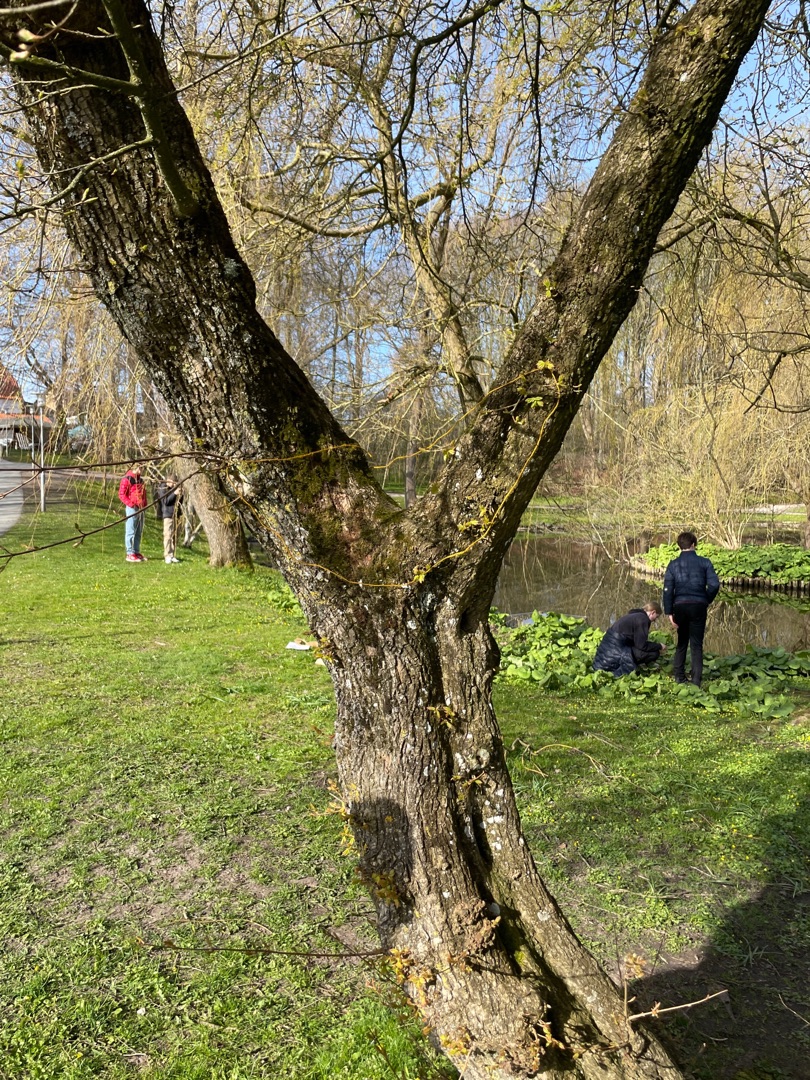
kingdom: Plantae
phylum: Bryophyta
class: Bryopsida
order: Hypnales
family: Hypnaceae
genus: Hypnum
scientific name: Hypnum
